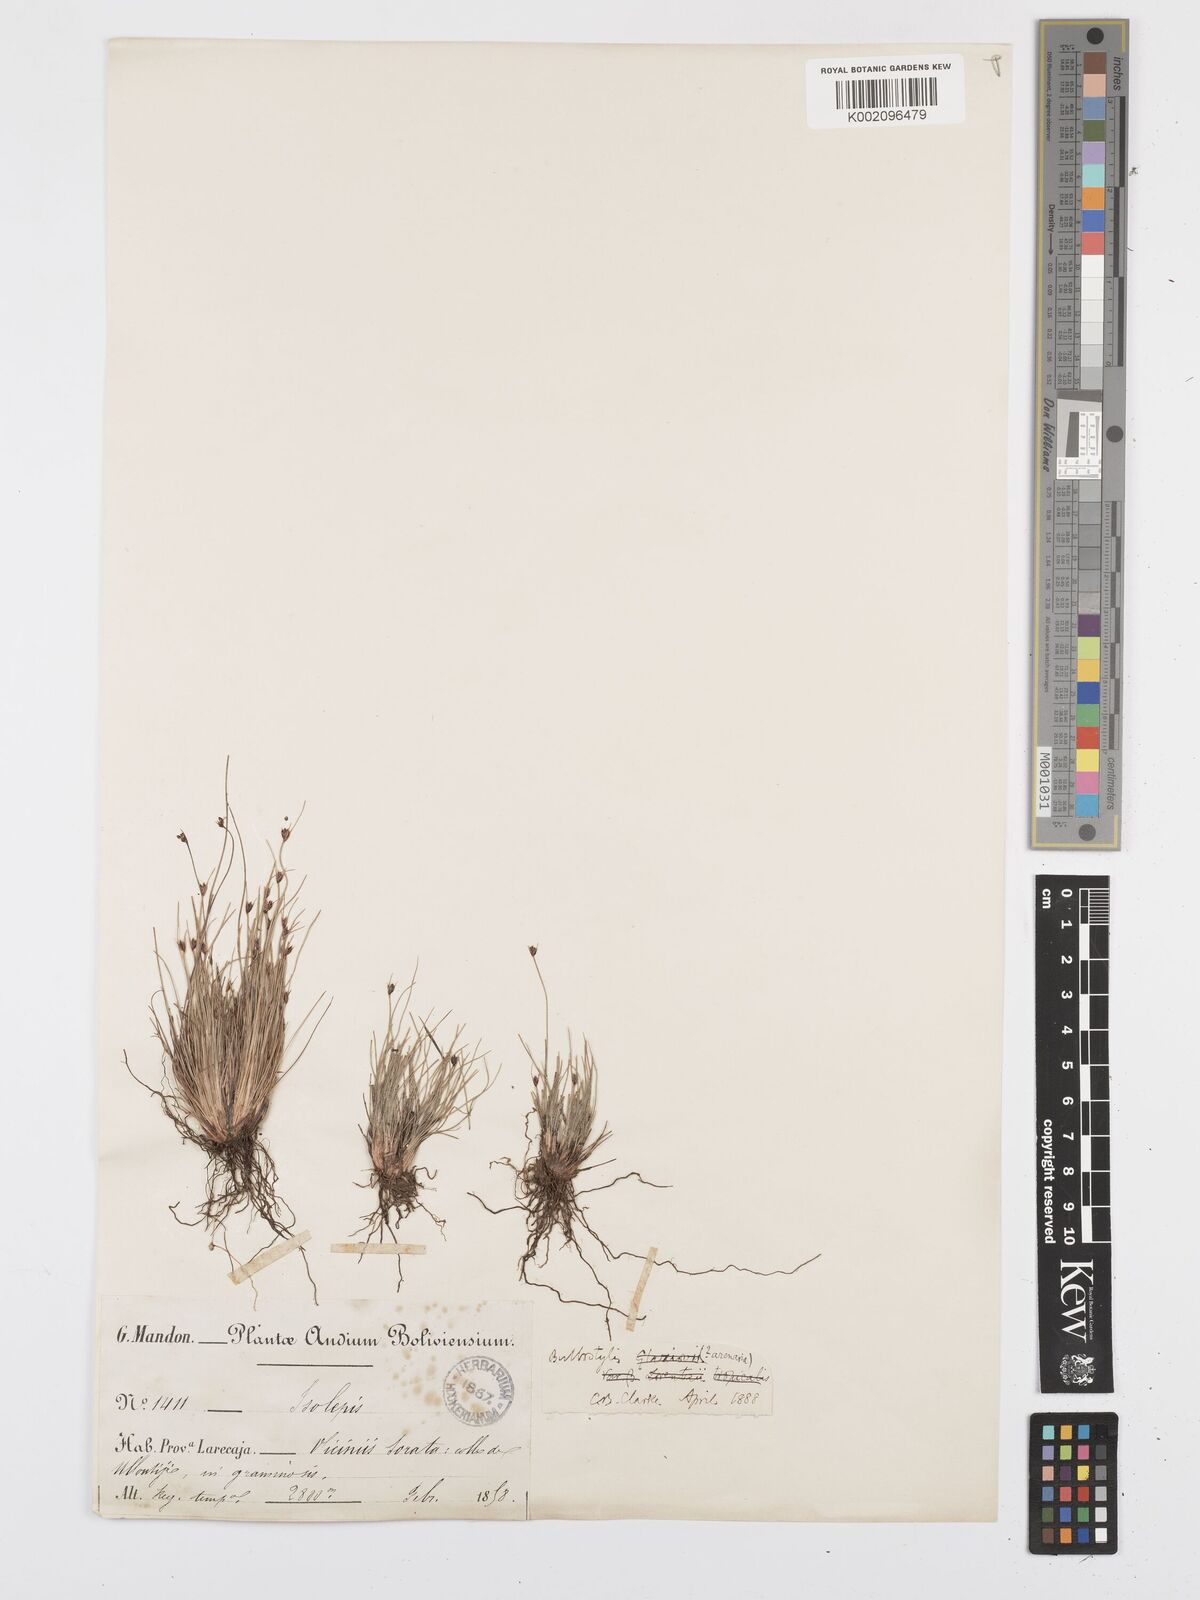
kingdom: Plantae
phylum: Tracheophyta
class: Liliopsida
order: Poales
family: Cyperaceae
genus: Bulbostylis
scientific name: Bulbostylis juncoides
